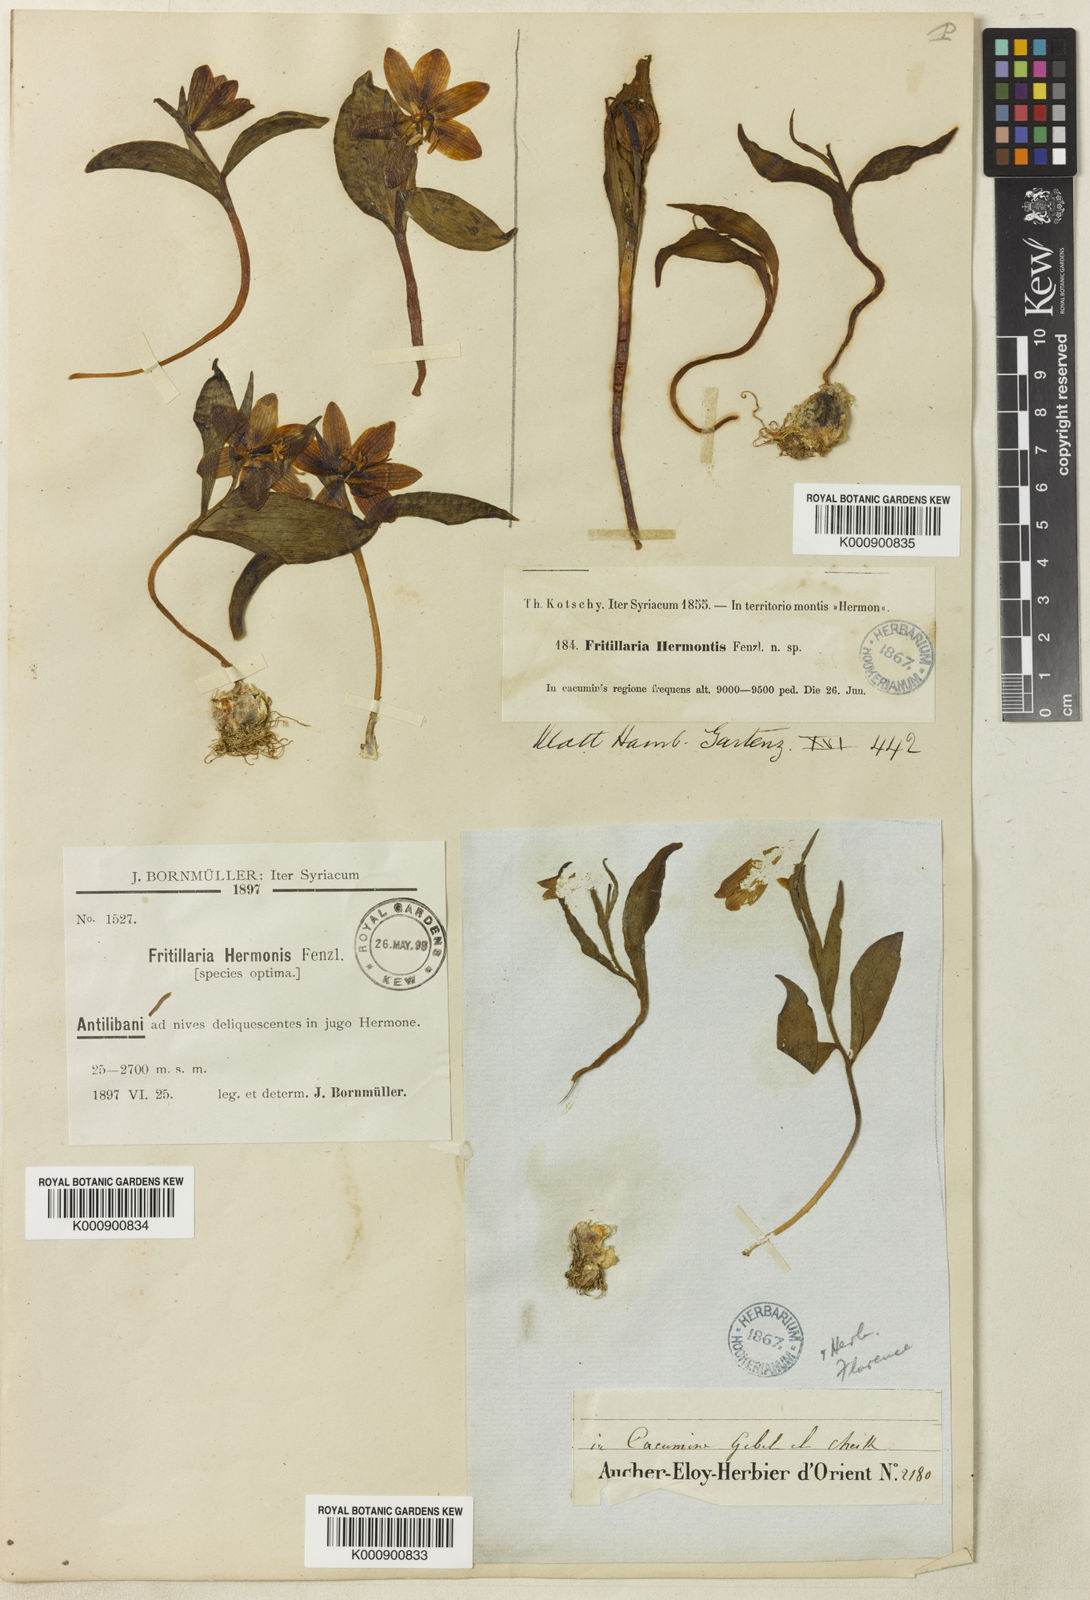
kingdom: Plantae
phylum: Tracheophyta
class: Liliopsida
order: Liliales
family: Liliaceae
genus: Fritillaria
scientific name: Fritillaria crassifolia
